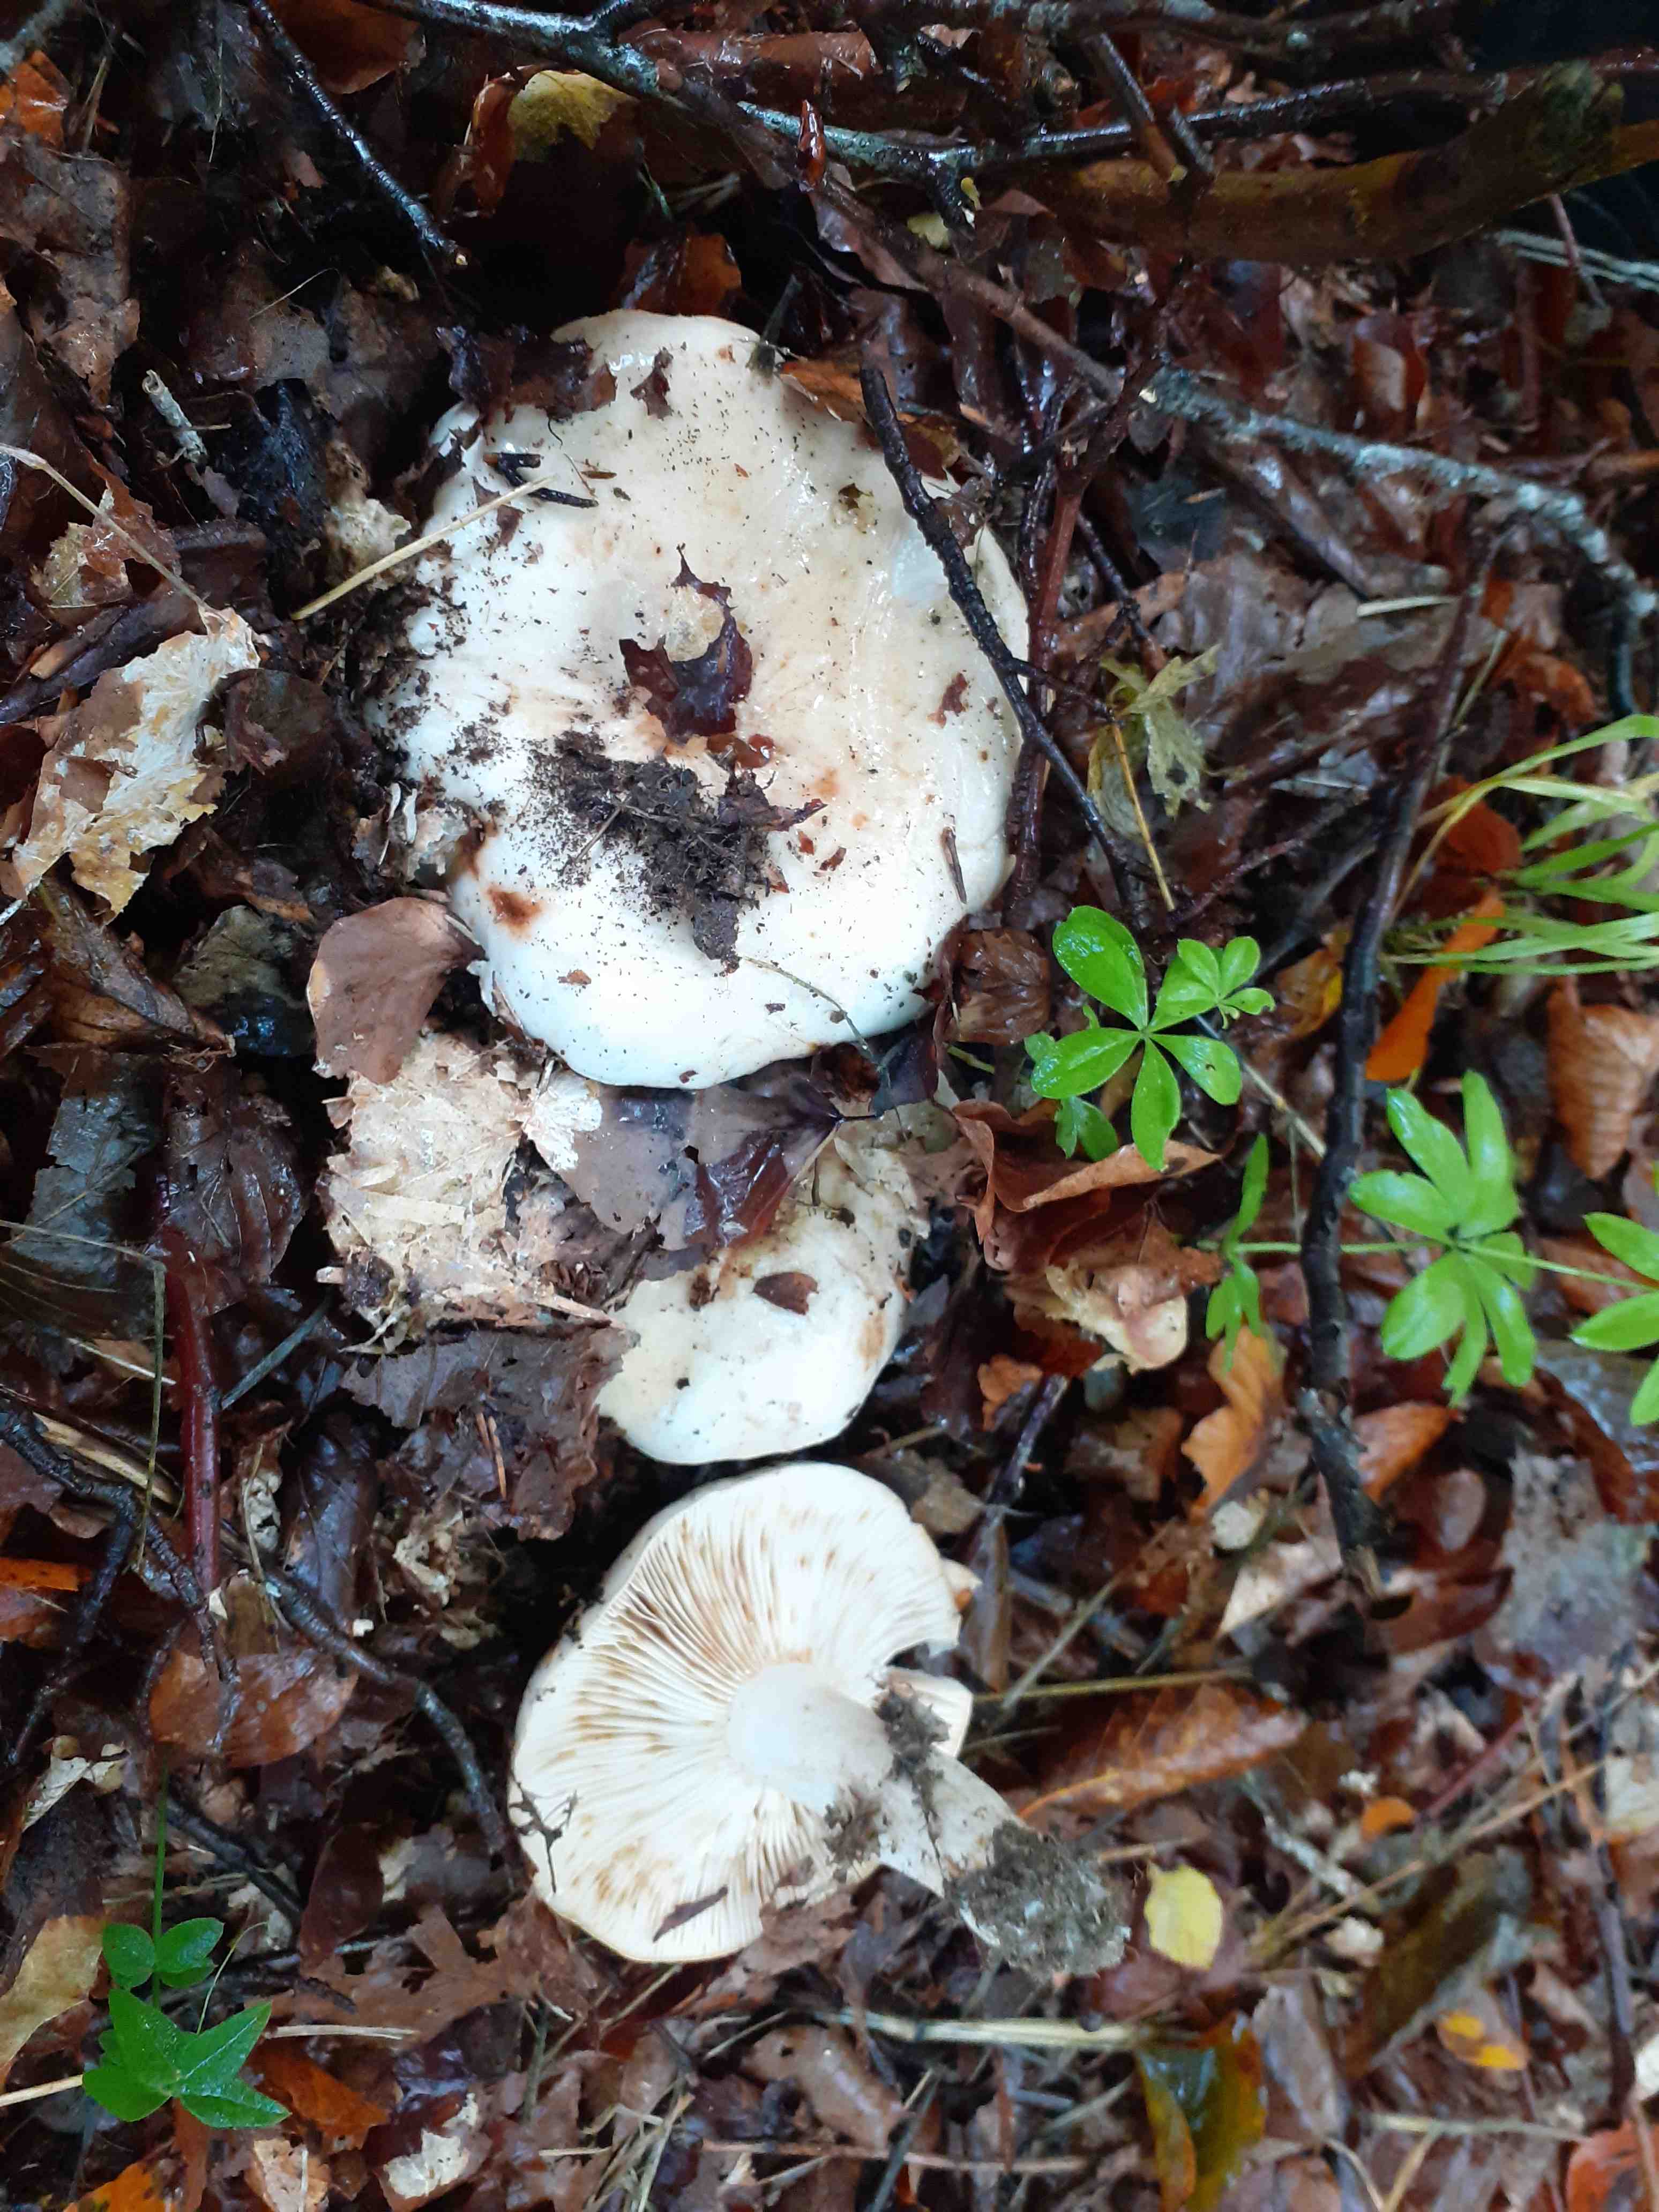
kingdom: Fungi
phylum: Basidiomycota
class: Agaricomycetes
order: Russulales
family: Russulaceae
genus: Lactarius
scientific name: Lactarius pallidus
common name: bleg mælkehat
